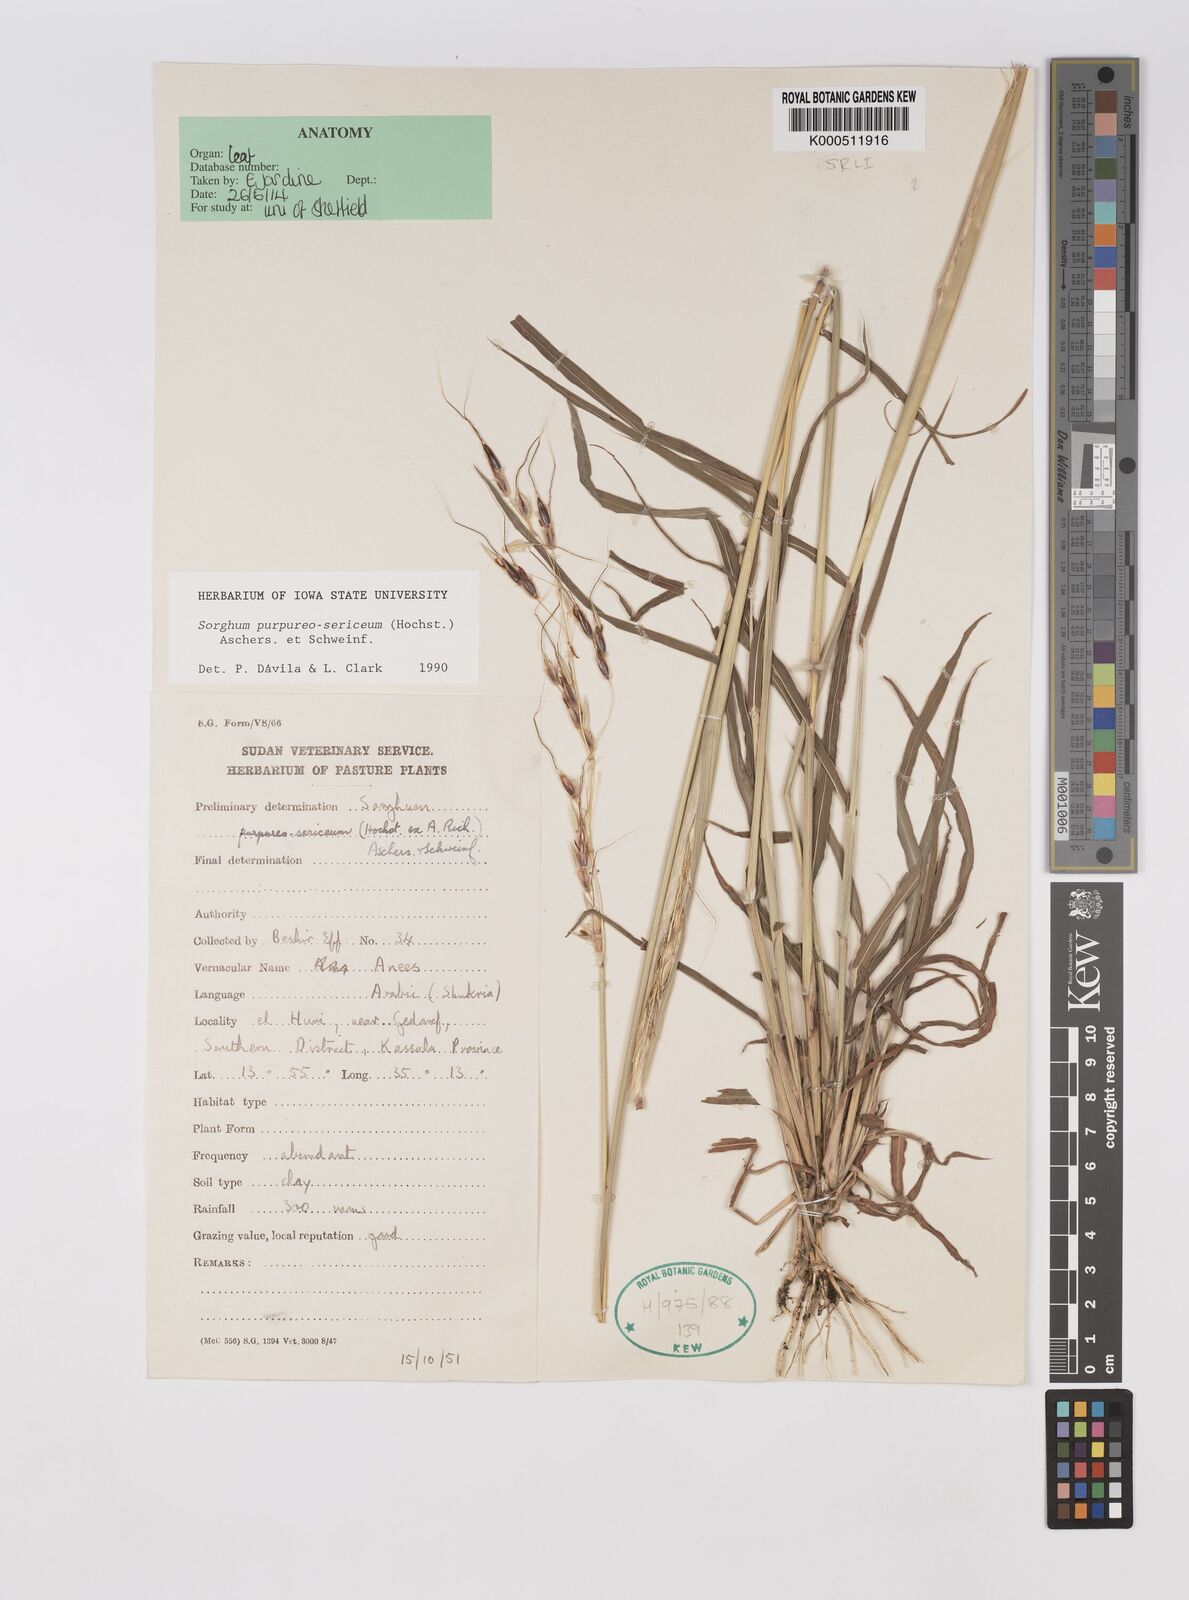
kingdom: Plantae
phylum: Tracheophyta
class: Liliopsida
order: Poales
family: Poaceae
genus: Sarga
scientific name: Sarga purpureosericea
